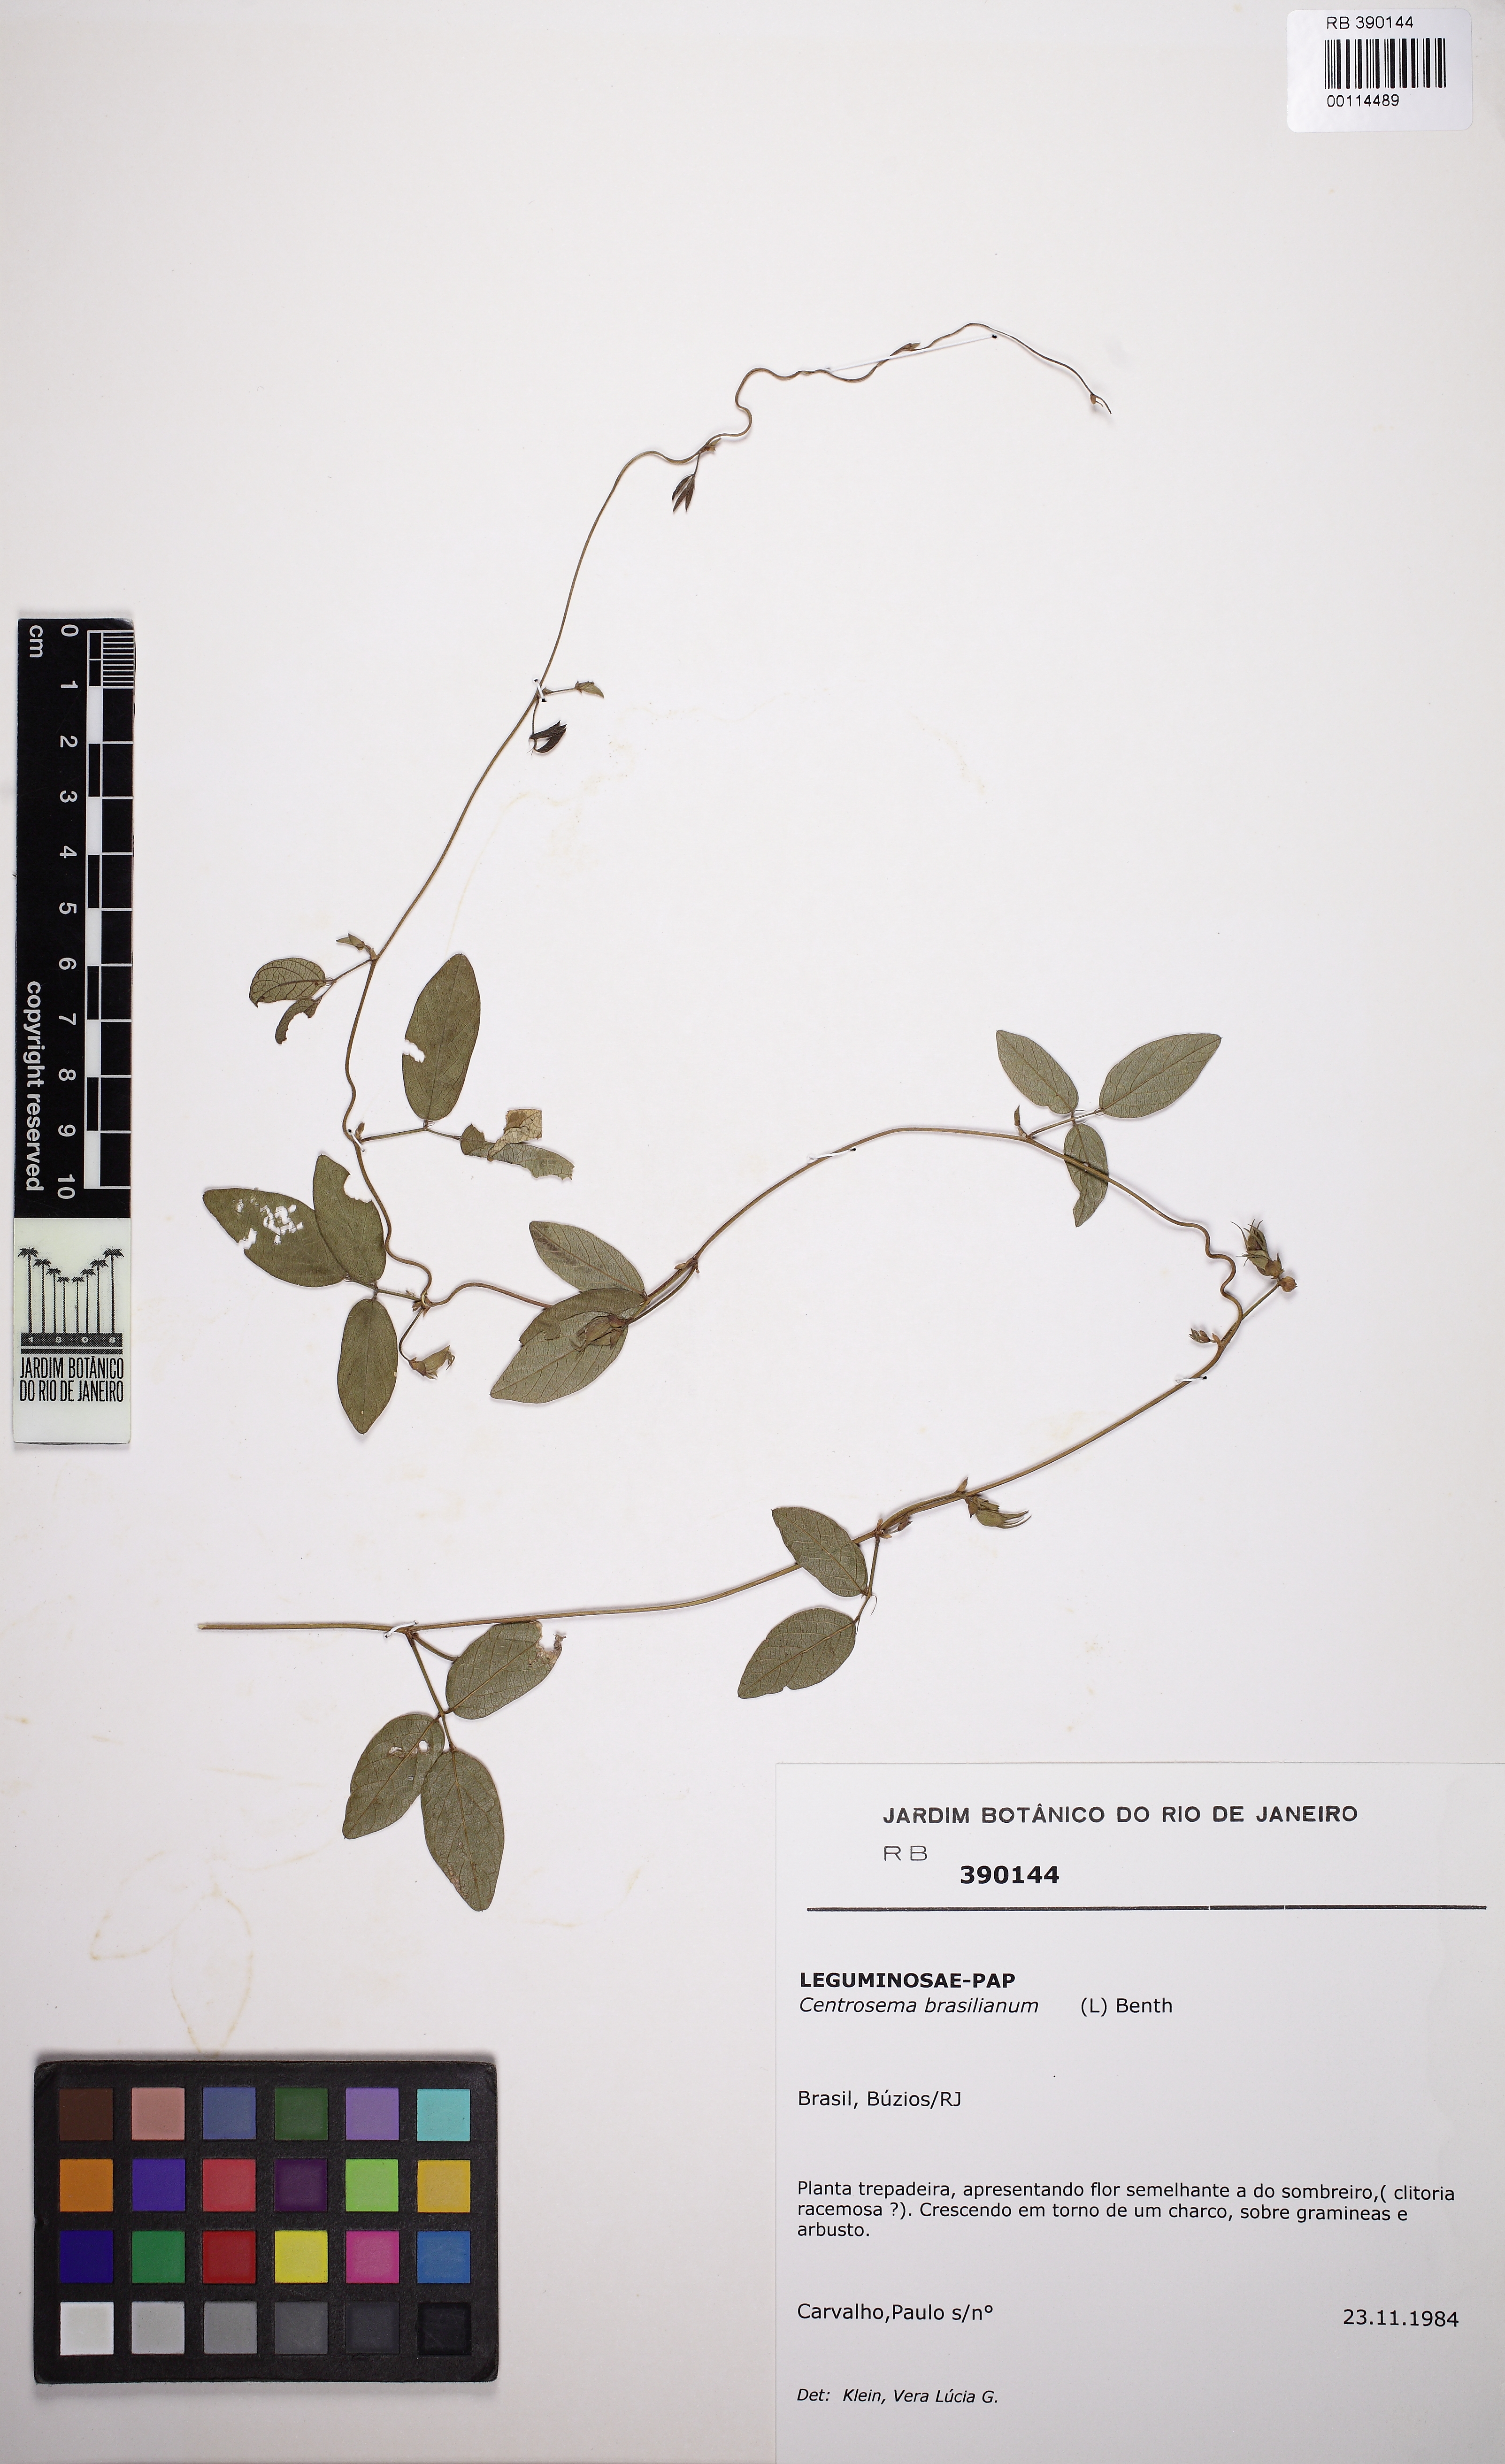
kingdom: Plantae
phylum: Tracheophyta
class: Magnoliopsida
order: Fabales
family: Fabaceae
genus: Centrosema
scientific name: Centrosema brasilianum
